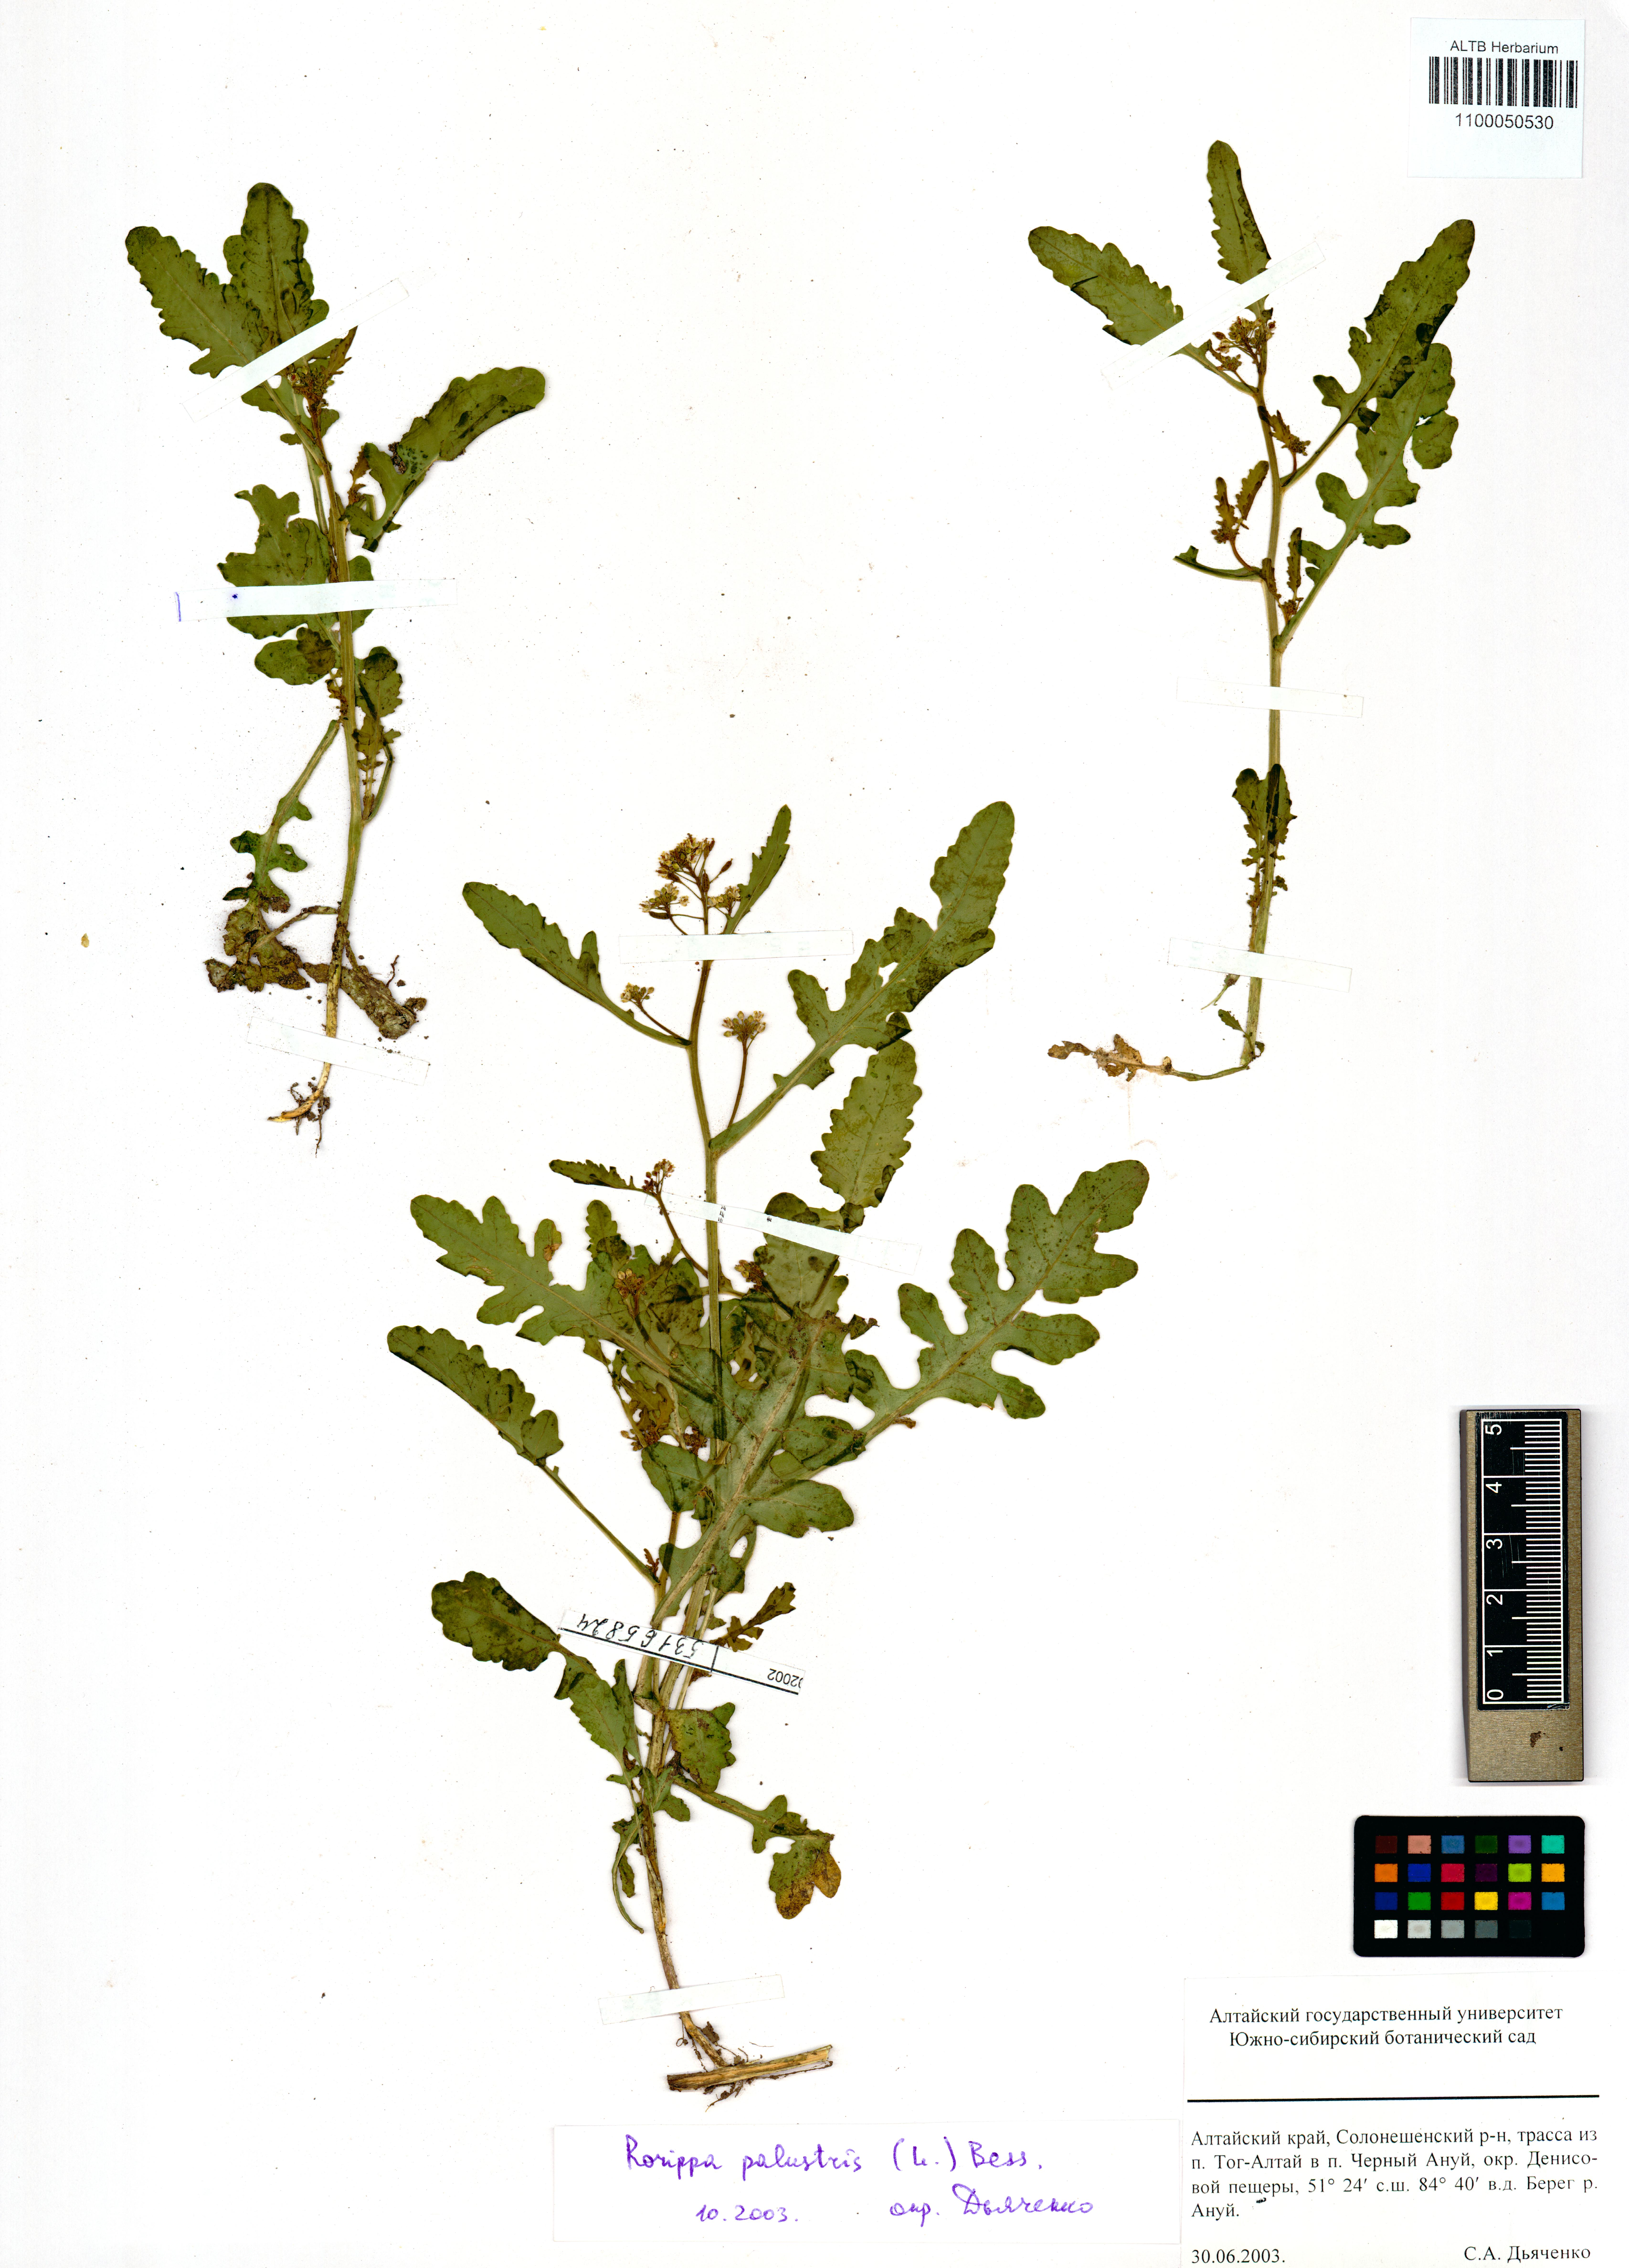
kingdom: Plantae
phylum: Tracheophyta
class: Magnoliopsida
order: Brassicales
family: Brassicaceae
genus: Rorippa
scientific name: Rorippa palustris
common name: Marsh yellow-cress
